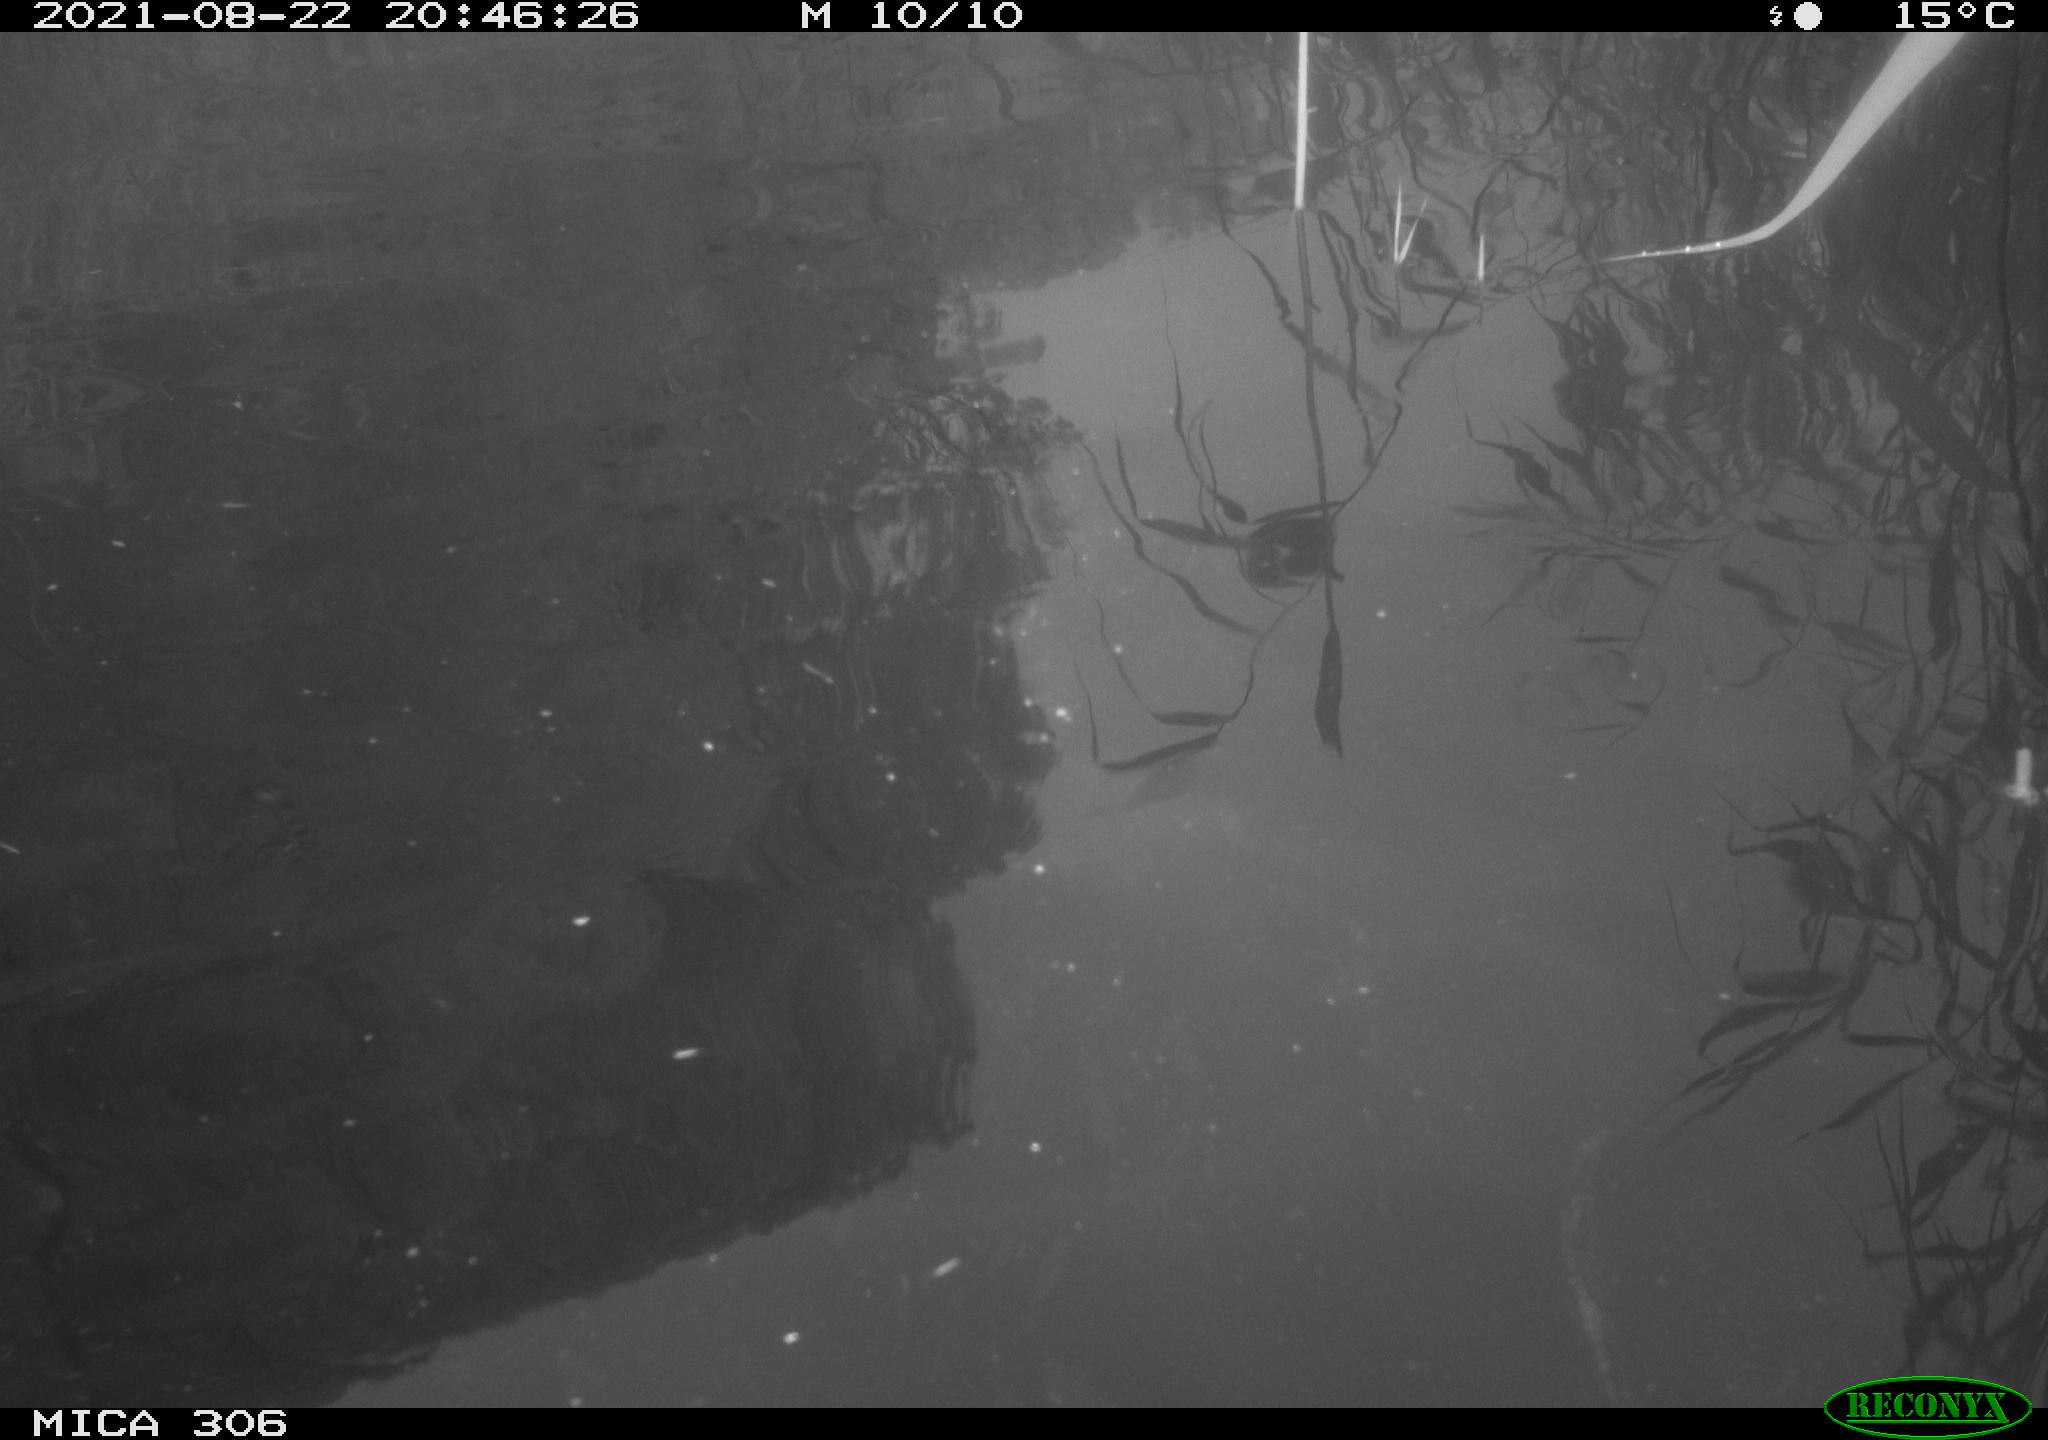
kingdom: Animalia
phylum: Chordata
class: Mammalia
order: Rodentia
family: Cricetidae
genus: Ondatra
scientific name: Ondatra zibethicus
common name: Muskrat
